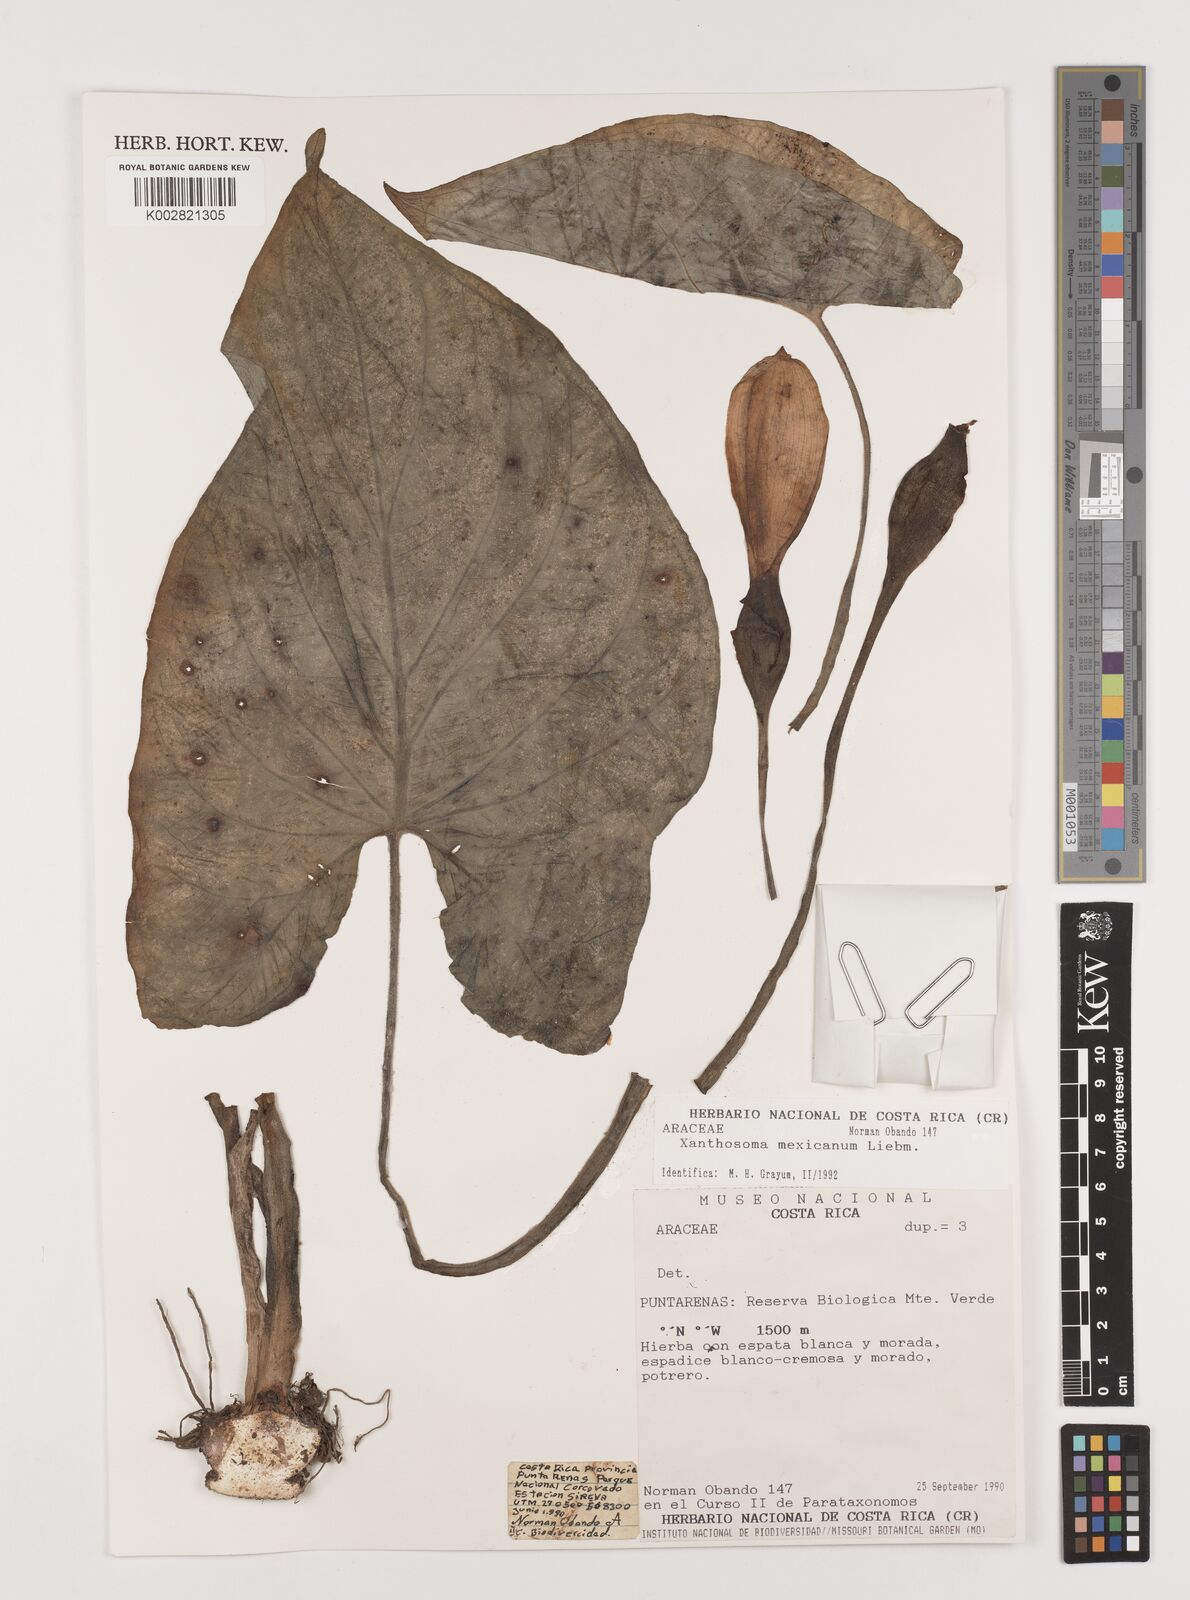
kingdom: Plantae
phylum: Tracheophyta
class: Liliopsida
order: Alismatales
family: Araceae
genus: Xanthosoma
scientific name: Xanthosoma mexicanum
